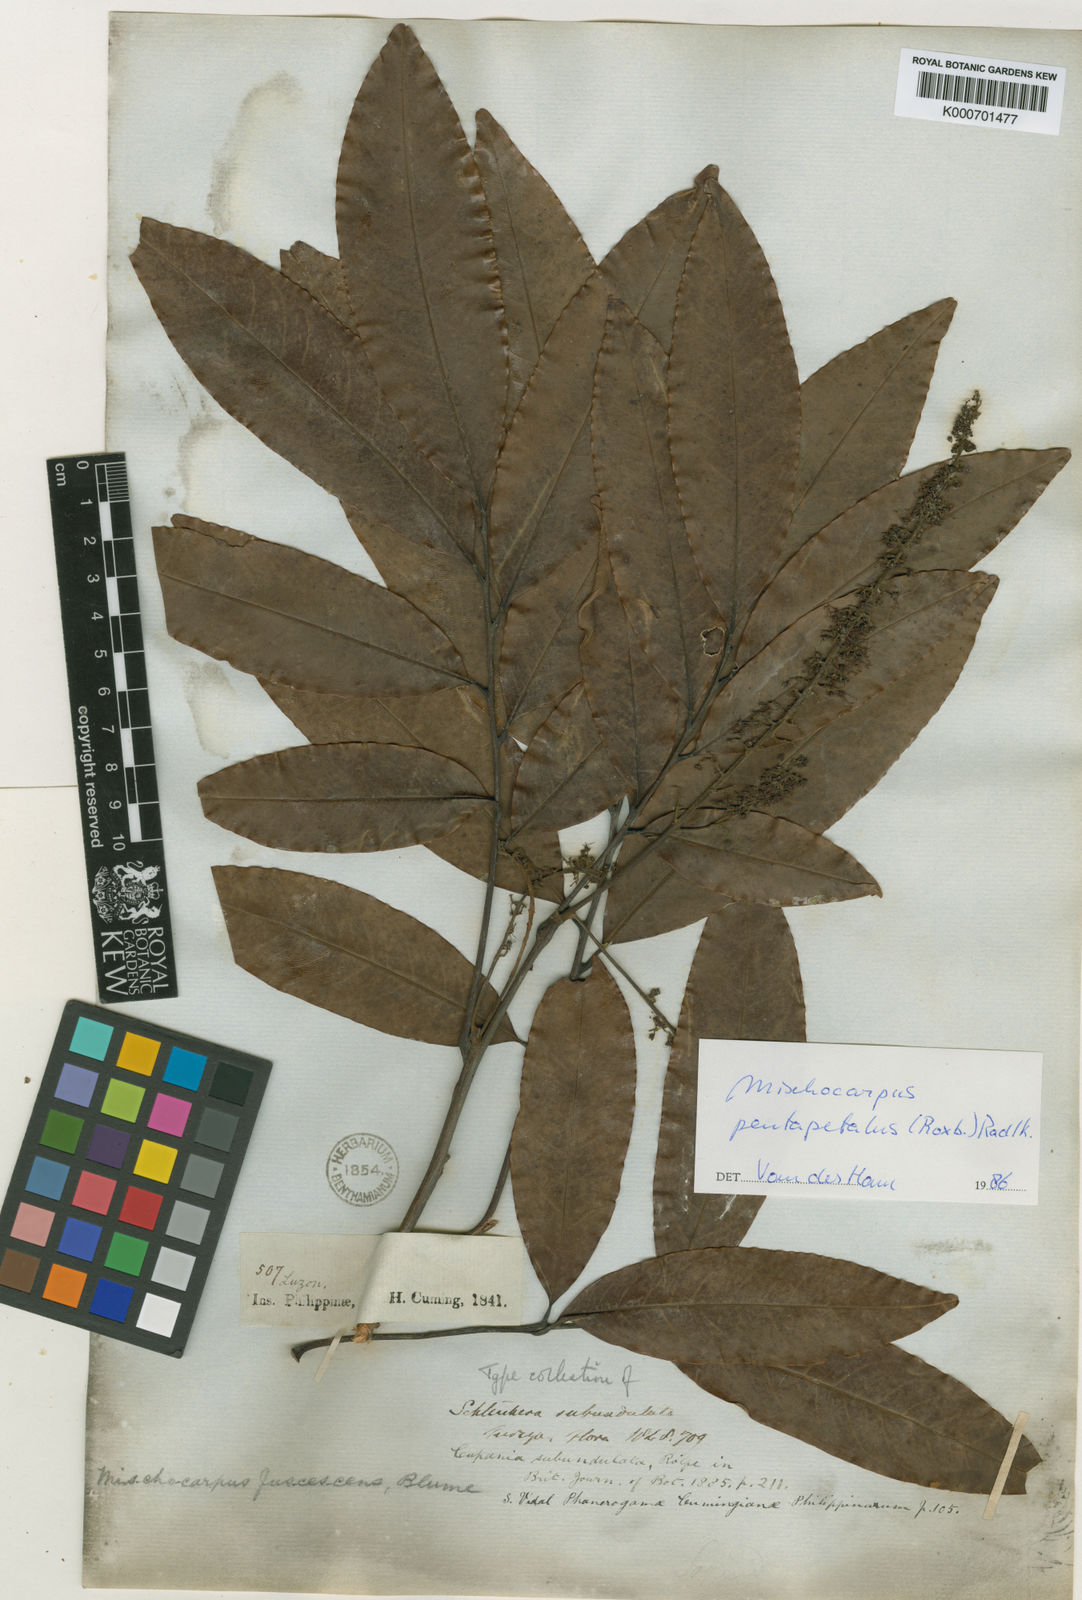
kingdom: Plantae
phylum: Tracheophyta
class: Magnoliopsida
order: Sapindales
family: Sapindaceae
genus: Mischocarpus
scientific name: Mischocarpus pentapetalus
